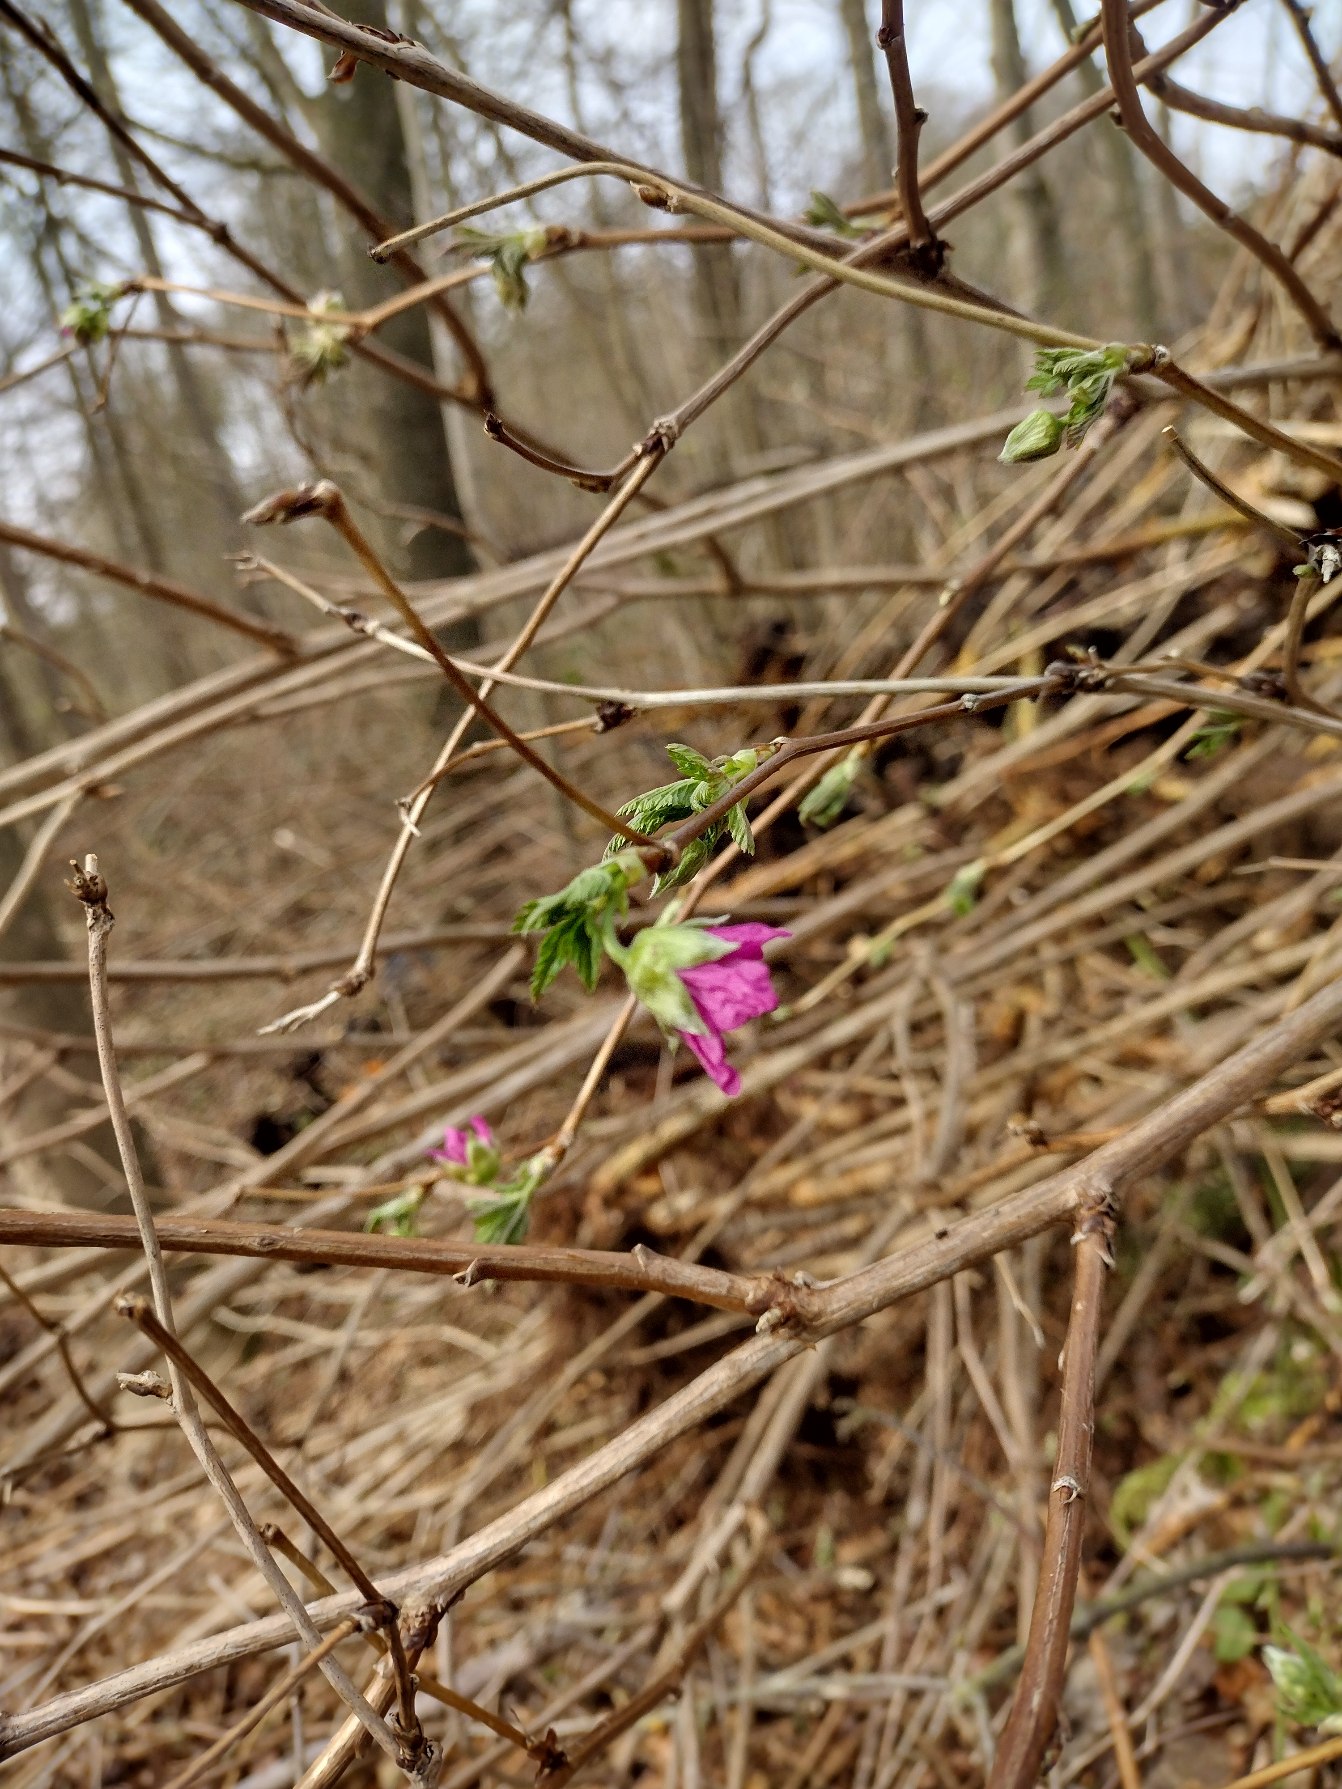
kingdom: Plantae
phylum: Tracheophyta
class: Magnoliopsida
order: Rosales
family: Rosaceae
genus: Rubus
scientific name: Rubus spectabilis
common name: Laksebær
